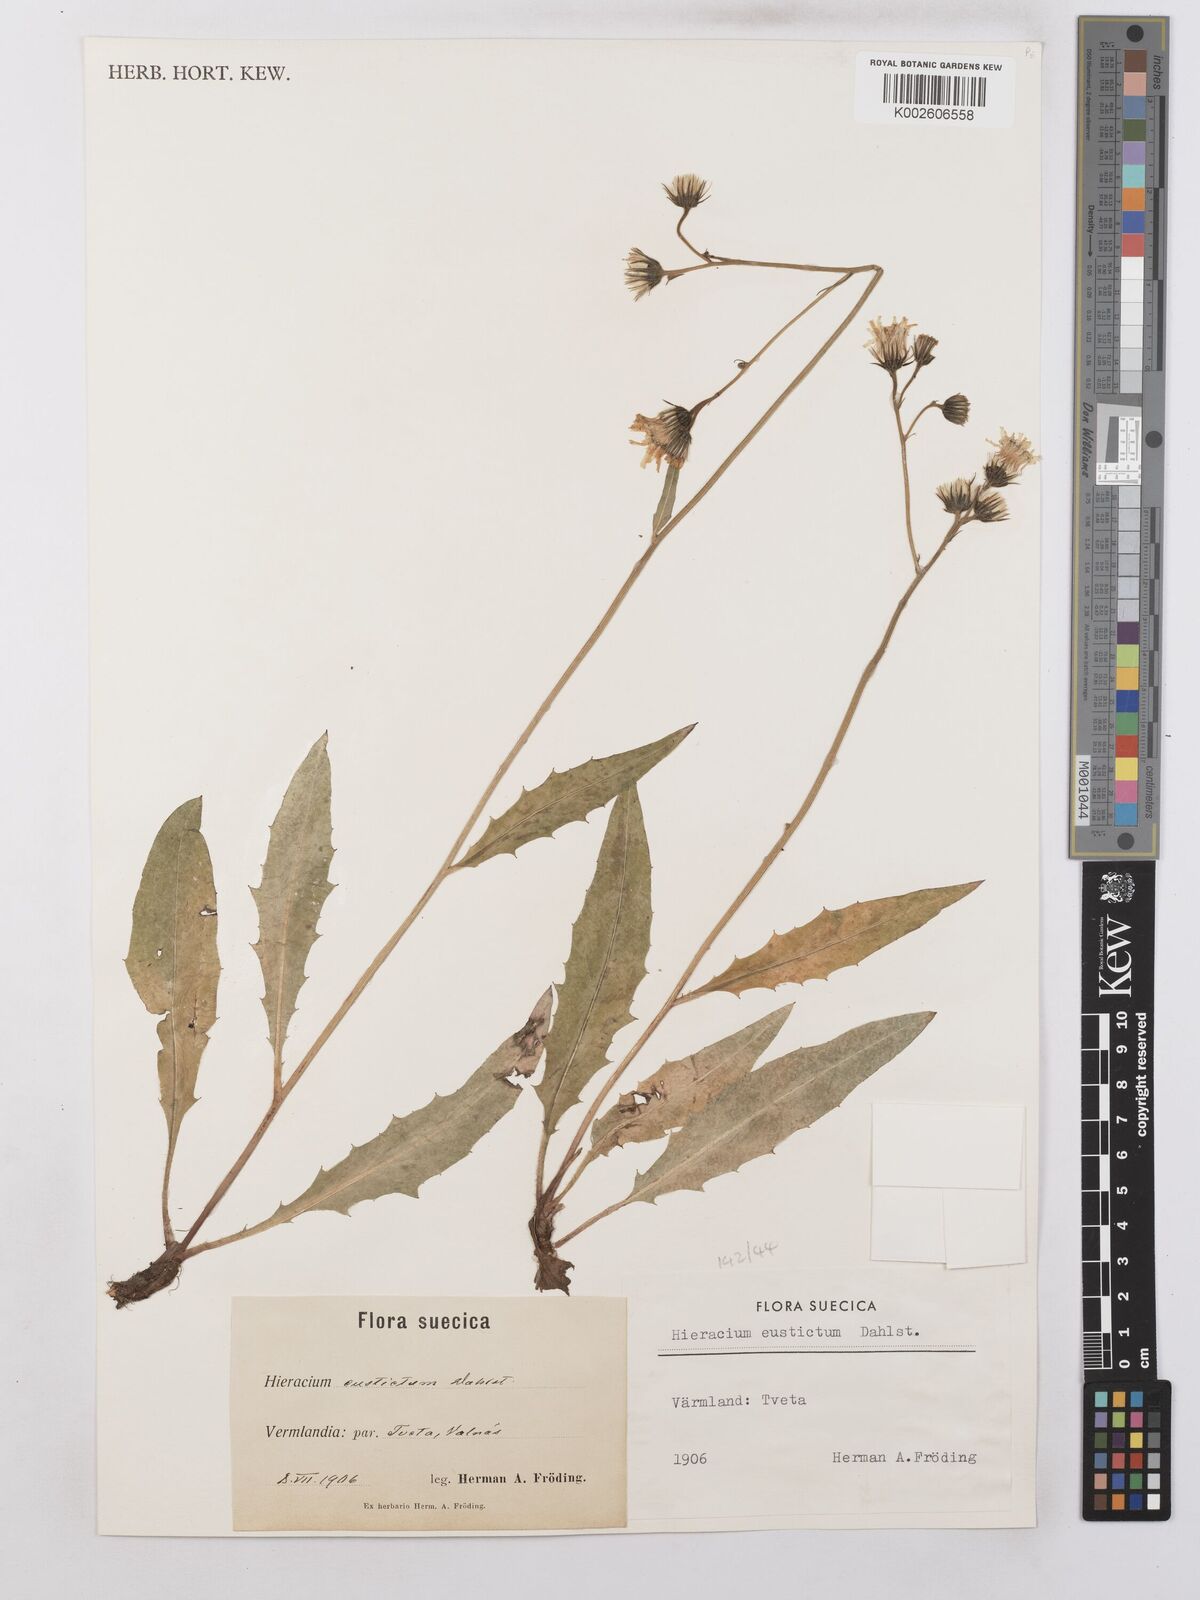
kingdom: Plantae
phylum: Tracheophyta
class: Magnoliopsida
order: Asterales
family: Asteraceae
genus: Hieracium
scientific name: Hieracium lachenalii
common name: Common hawkweed
